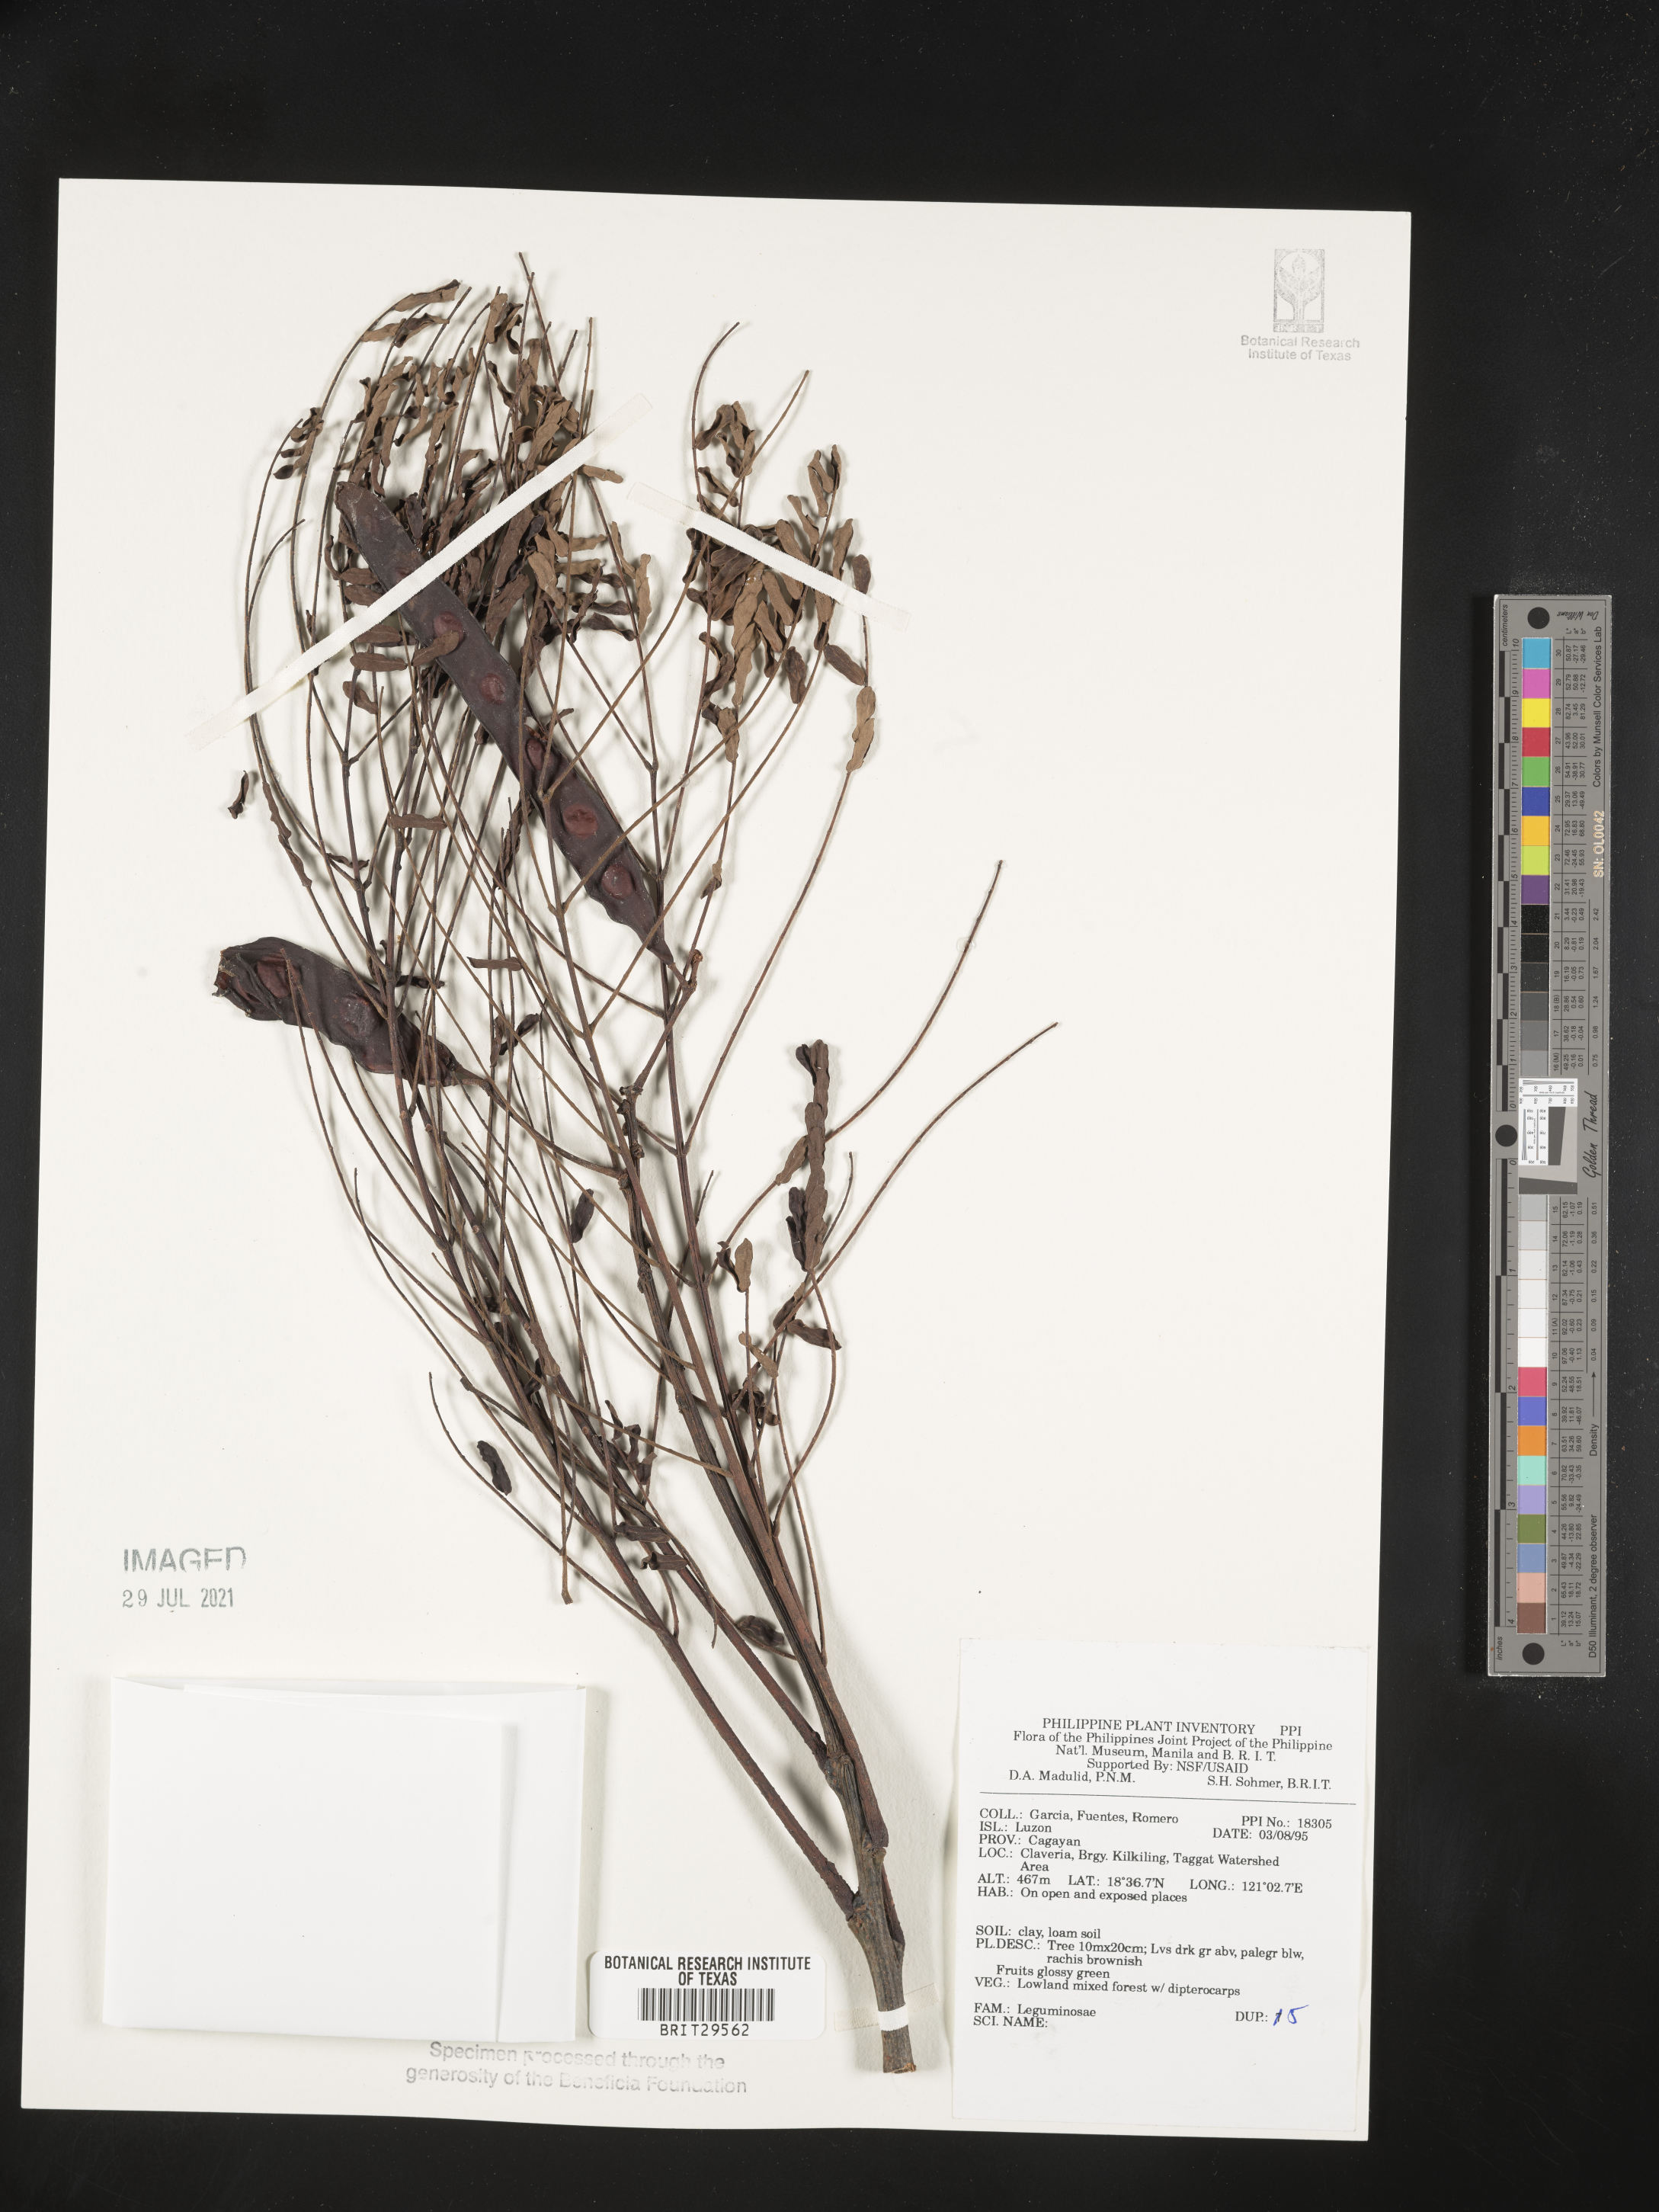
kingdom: Plantae
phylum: Tracheophyta
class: Magnoliopsida
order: Fabales
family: Fabaceae
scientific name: Fabaceae
